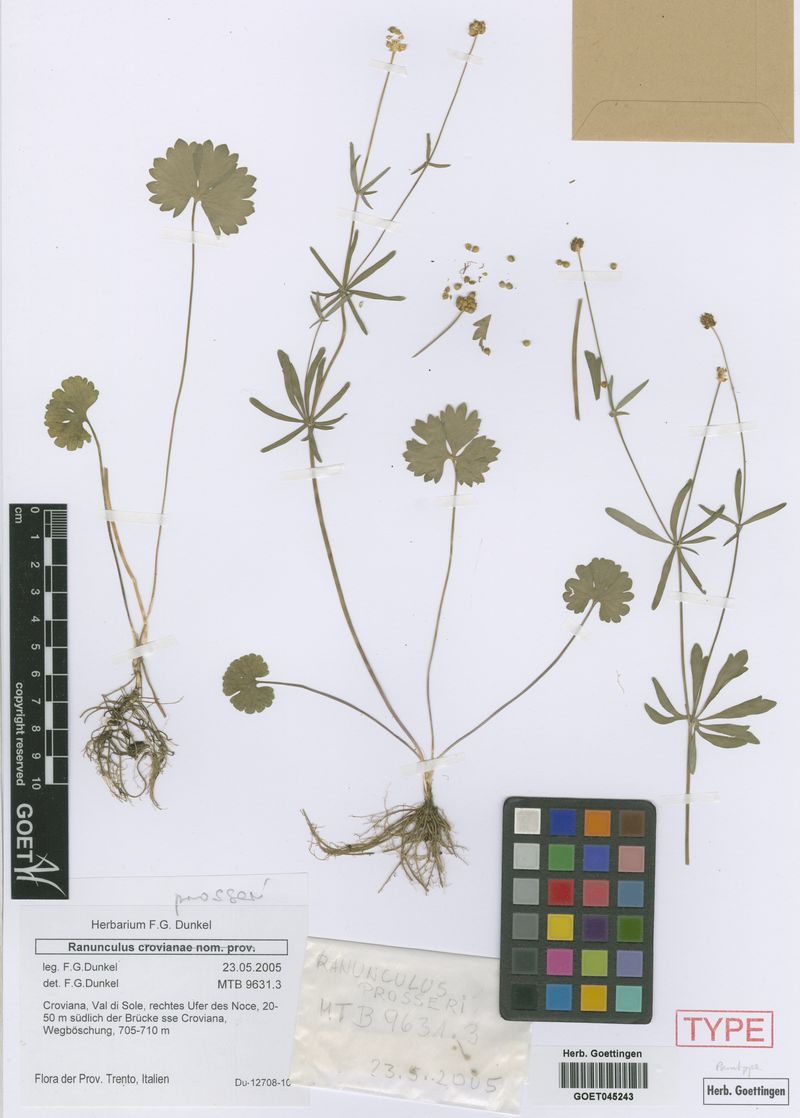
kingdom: Plantae
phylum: Tracheophyta
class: Magnoliopsida
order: Ranunculales
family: Ranunculaceae
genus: Ranunculus
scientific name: Ranunculus prosseri
